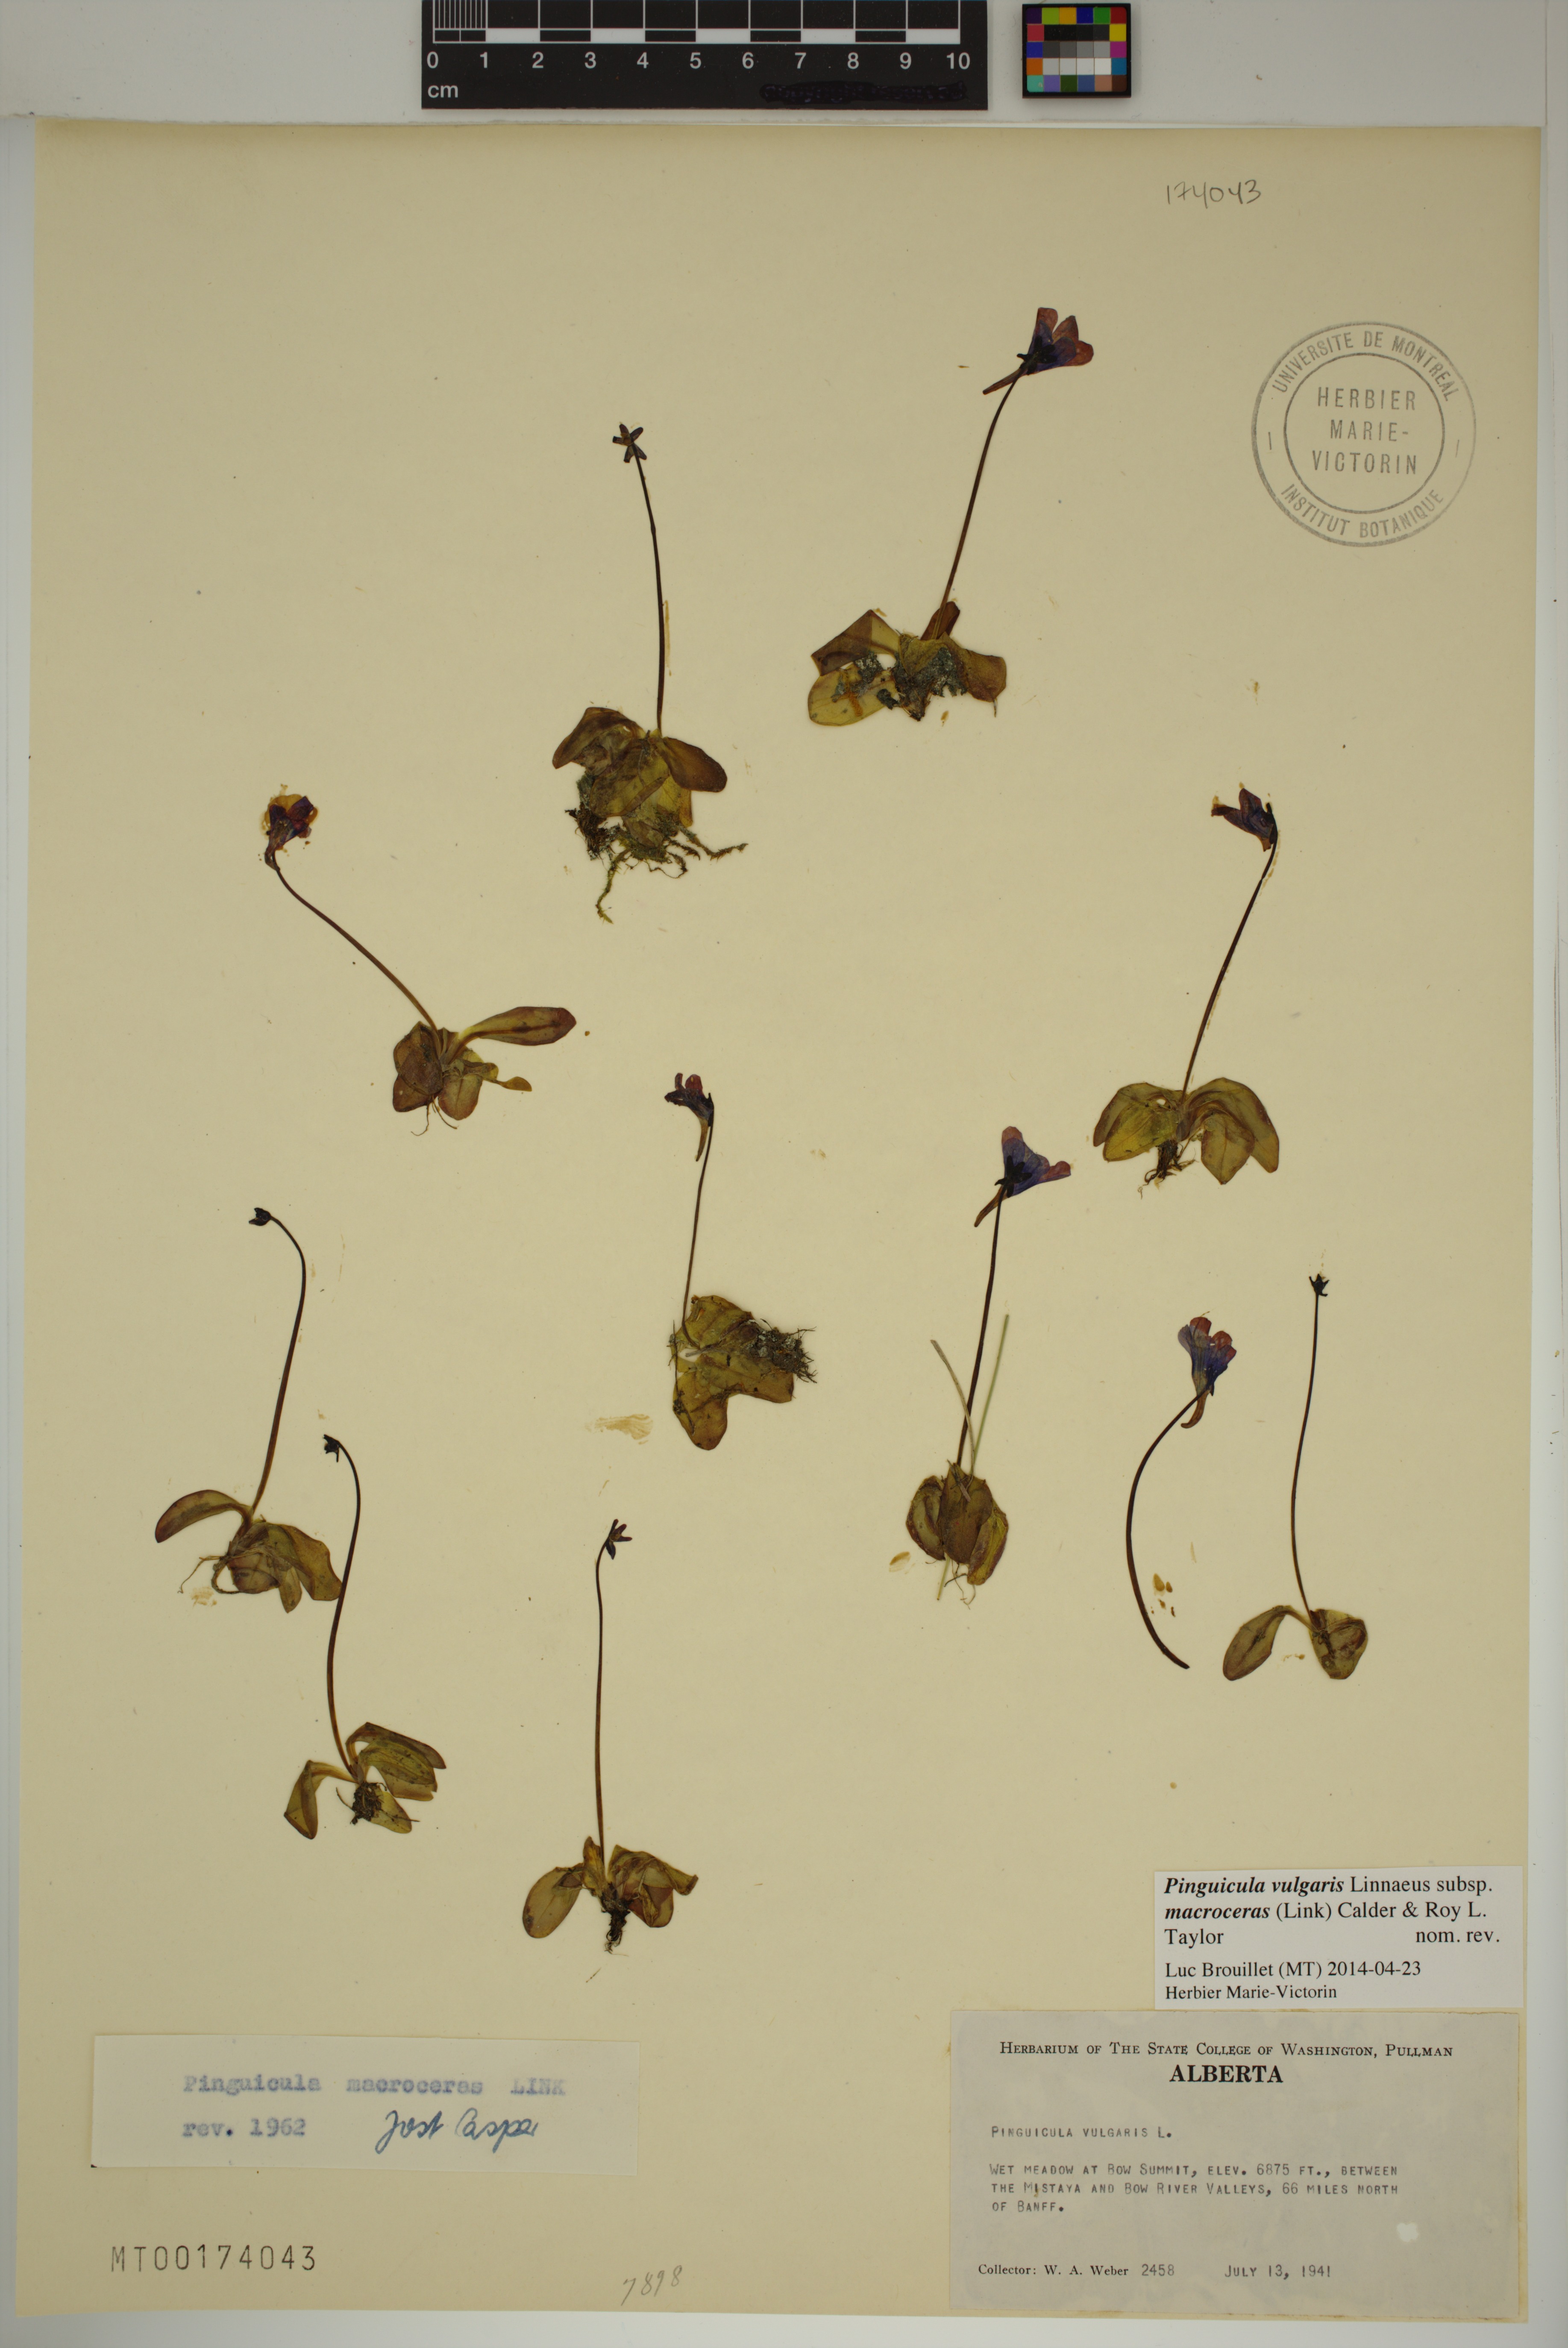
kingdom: Plantae
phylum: Tracheophyta
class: Magnoliopsida
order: Lamiales
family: Lentibulariaceae
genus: Pinguicula
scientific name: Pinguicula macroceras
